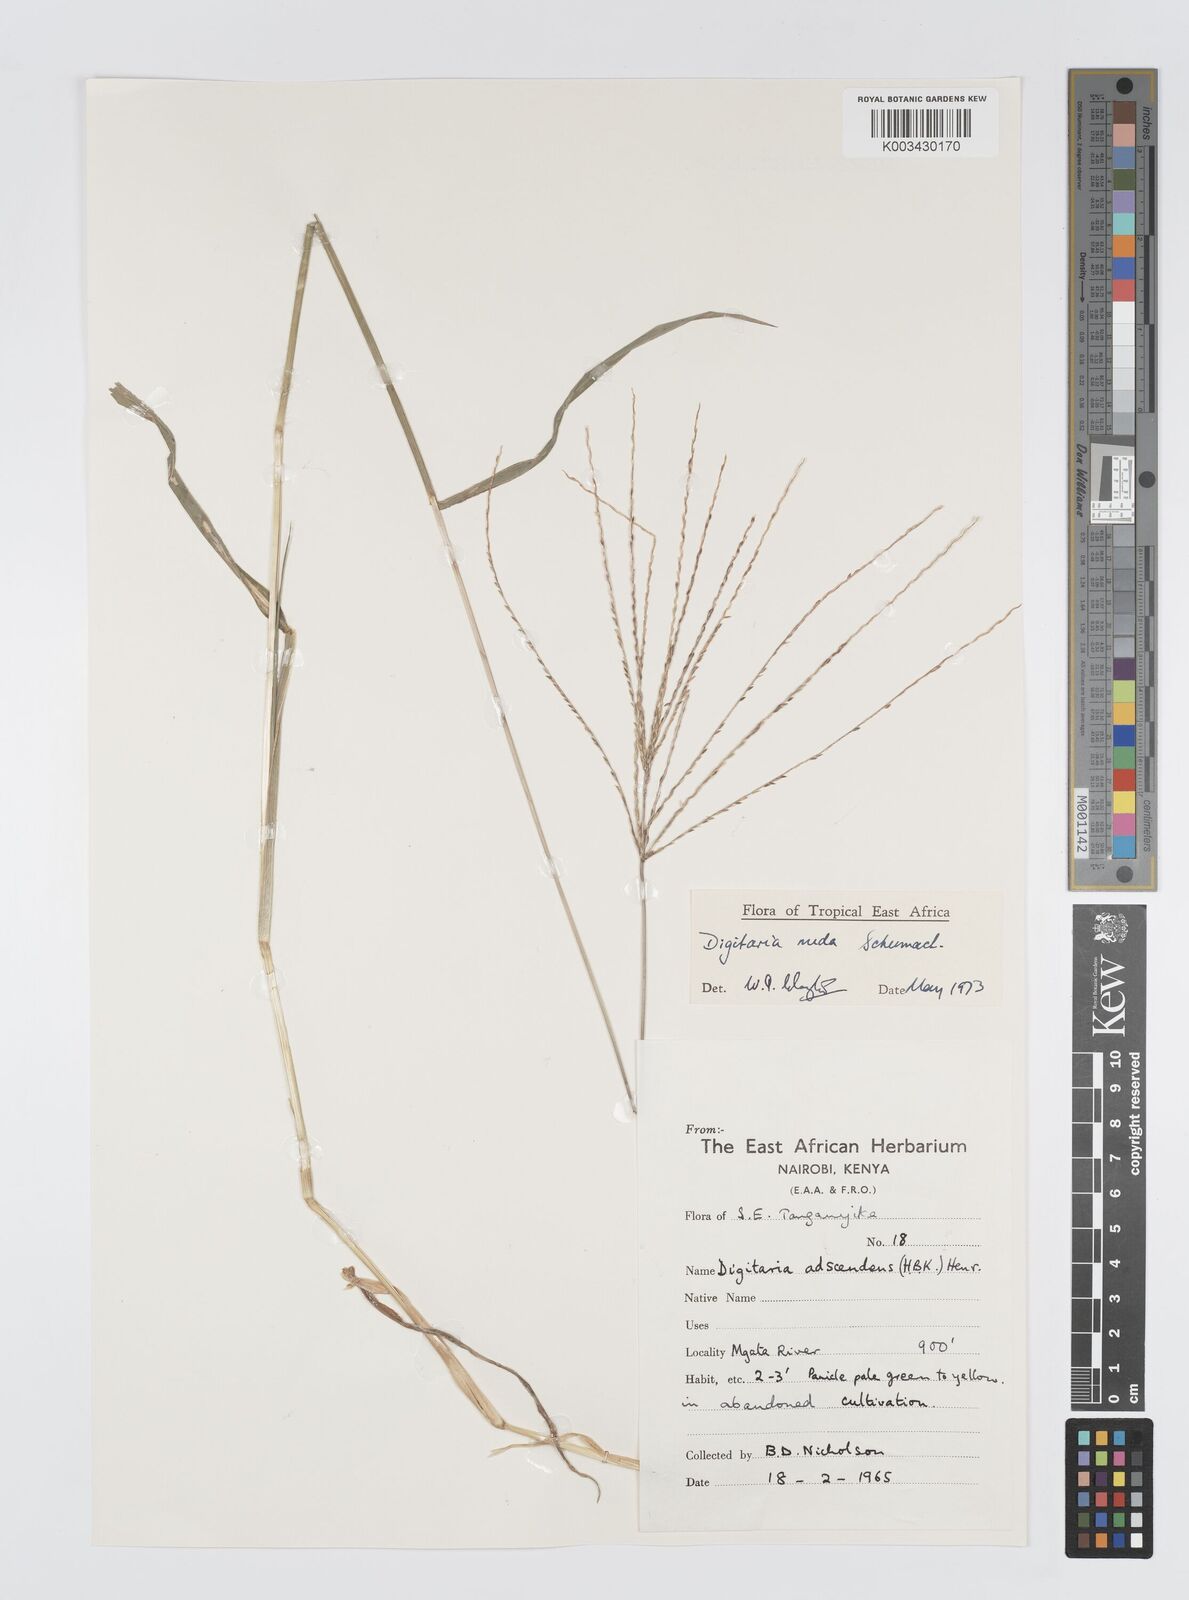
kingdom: Plantae
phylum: Tracheophyta
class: Liliopsida
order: Poales
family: Poaceae
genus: Digitaria
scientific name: Digitaria nuda
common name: Naked crabgrass
